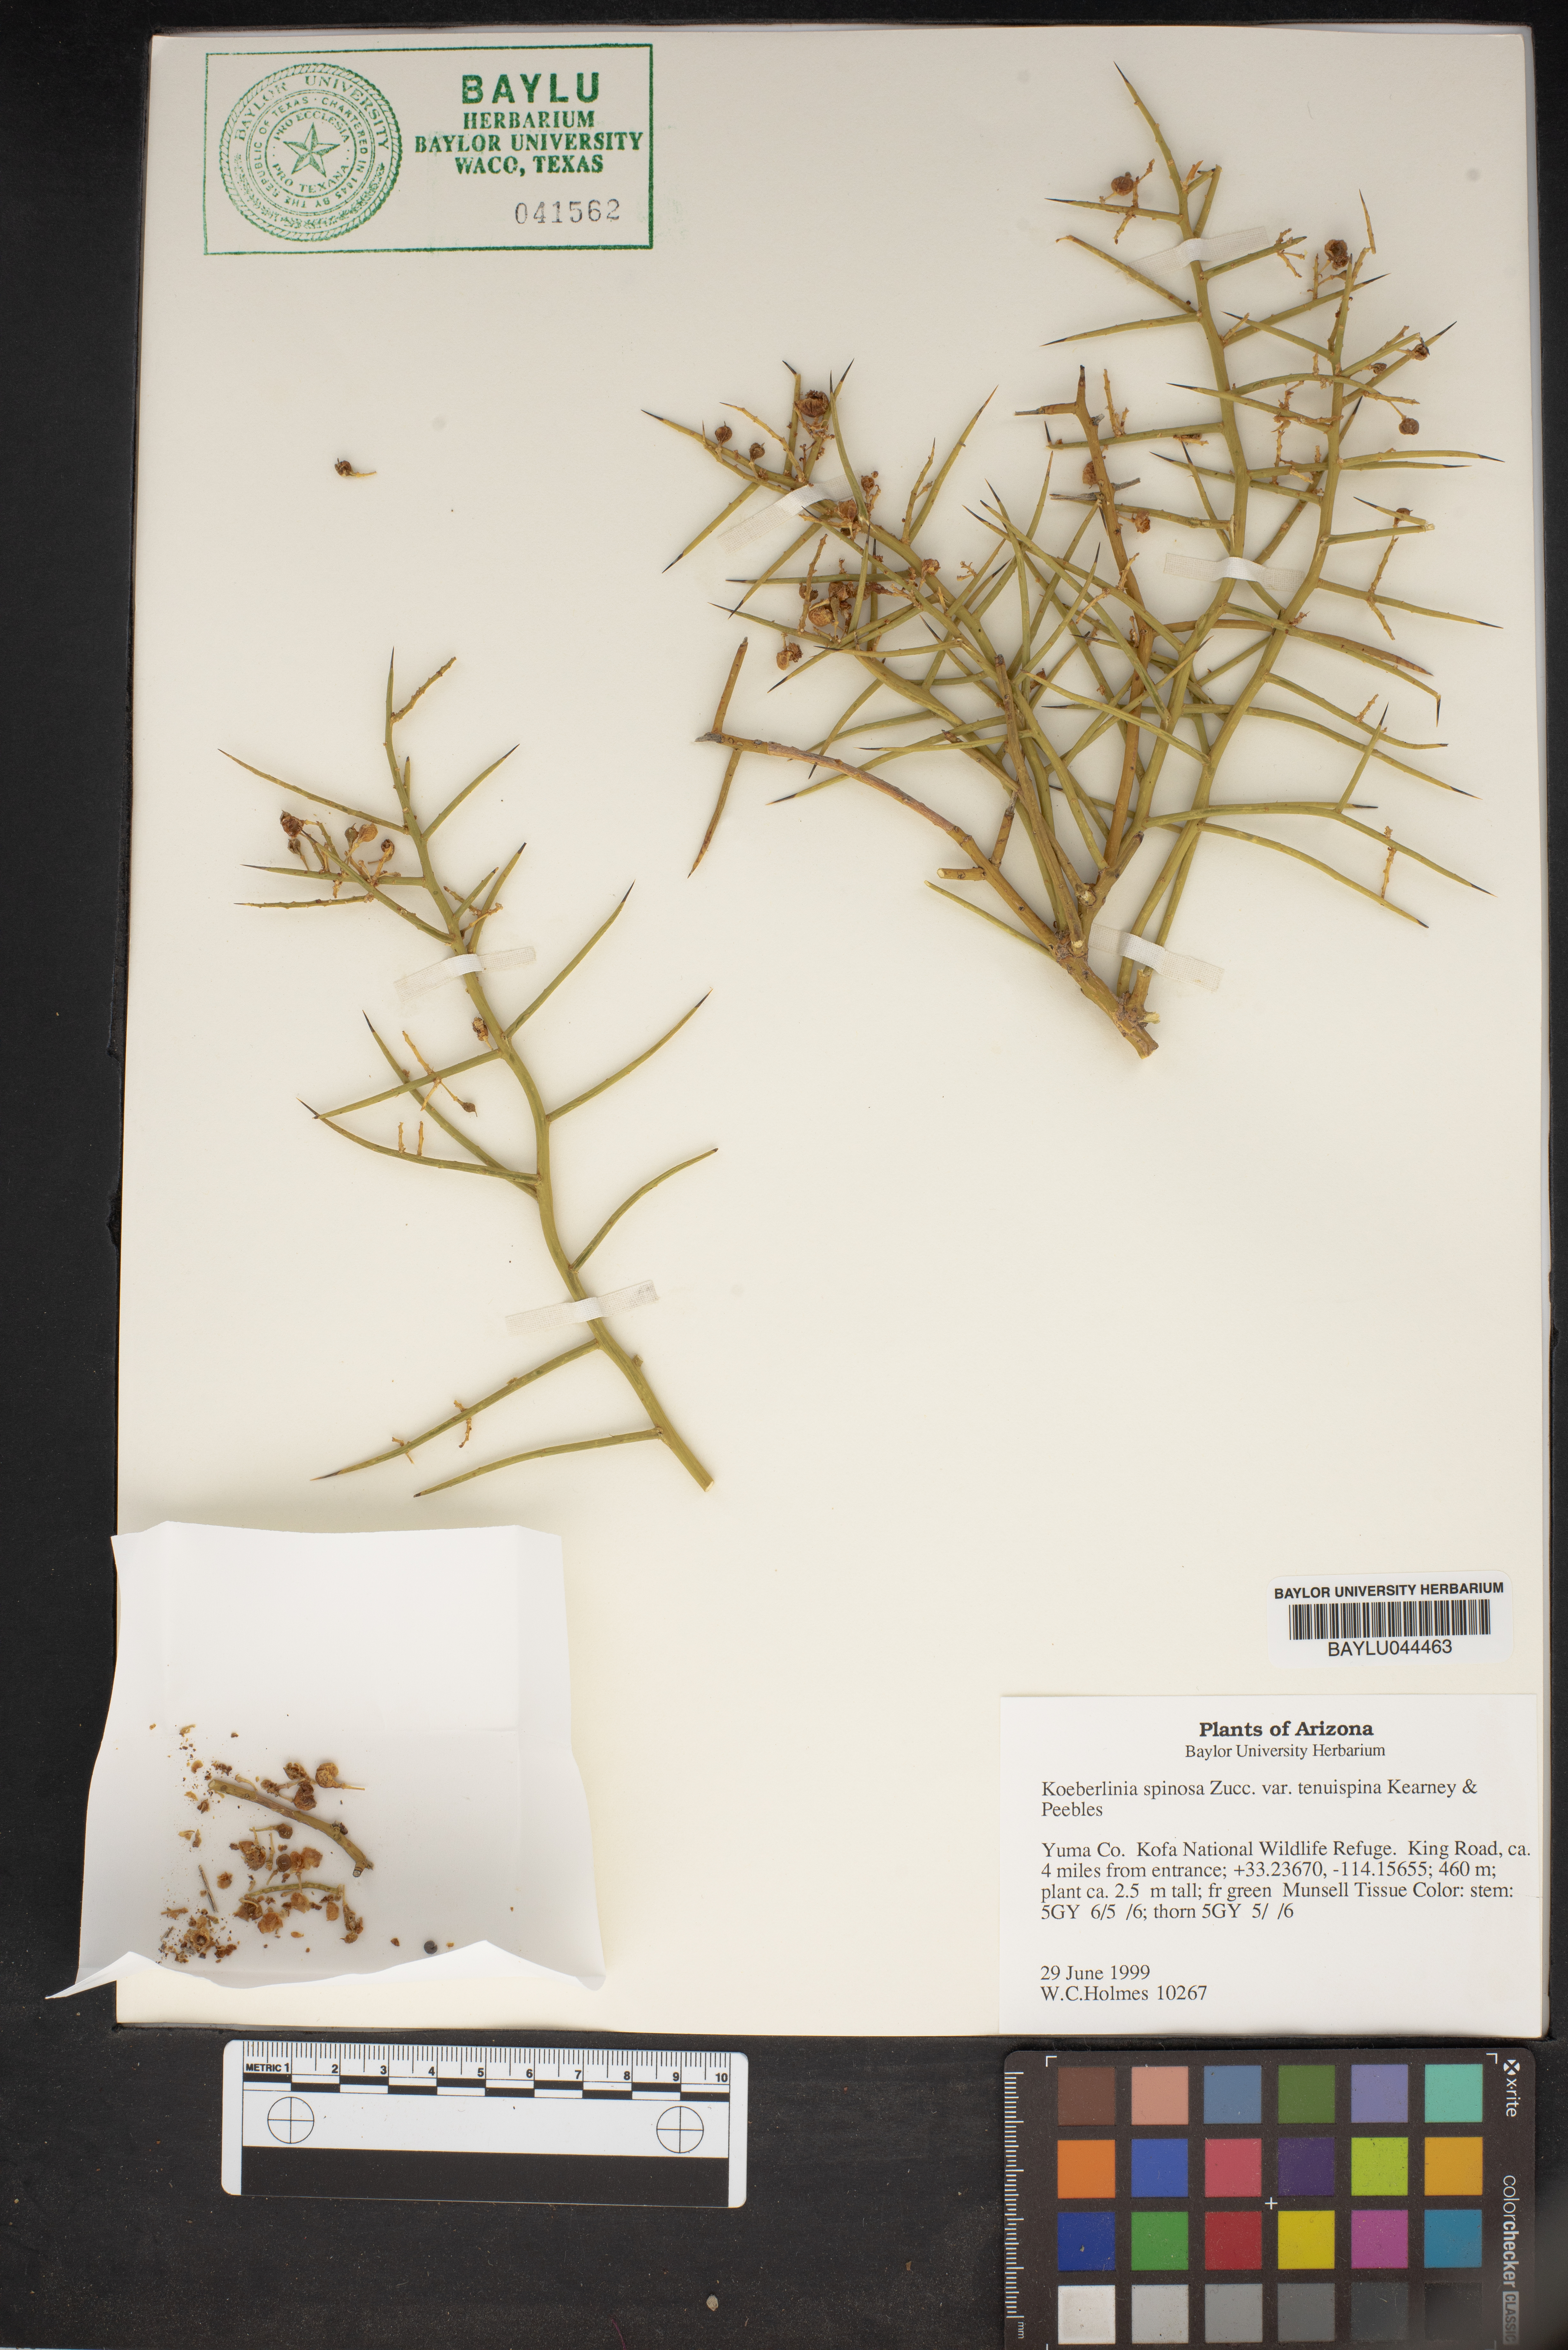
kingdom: Plantae
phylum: Tracheophyta
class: Magnoliopsida
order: Brassicales
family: Koeberliniaceae
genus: Koeberlinia
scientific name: Koeberlinia spinosa
